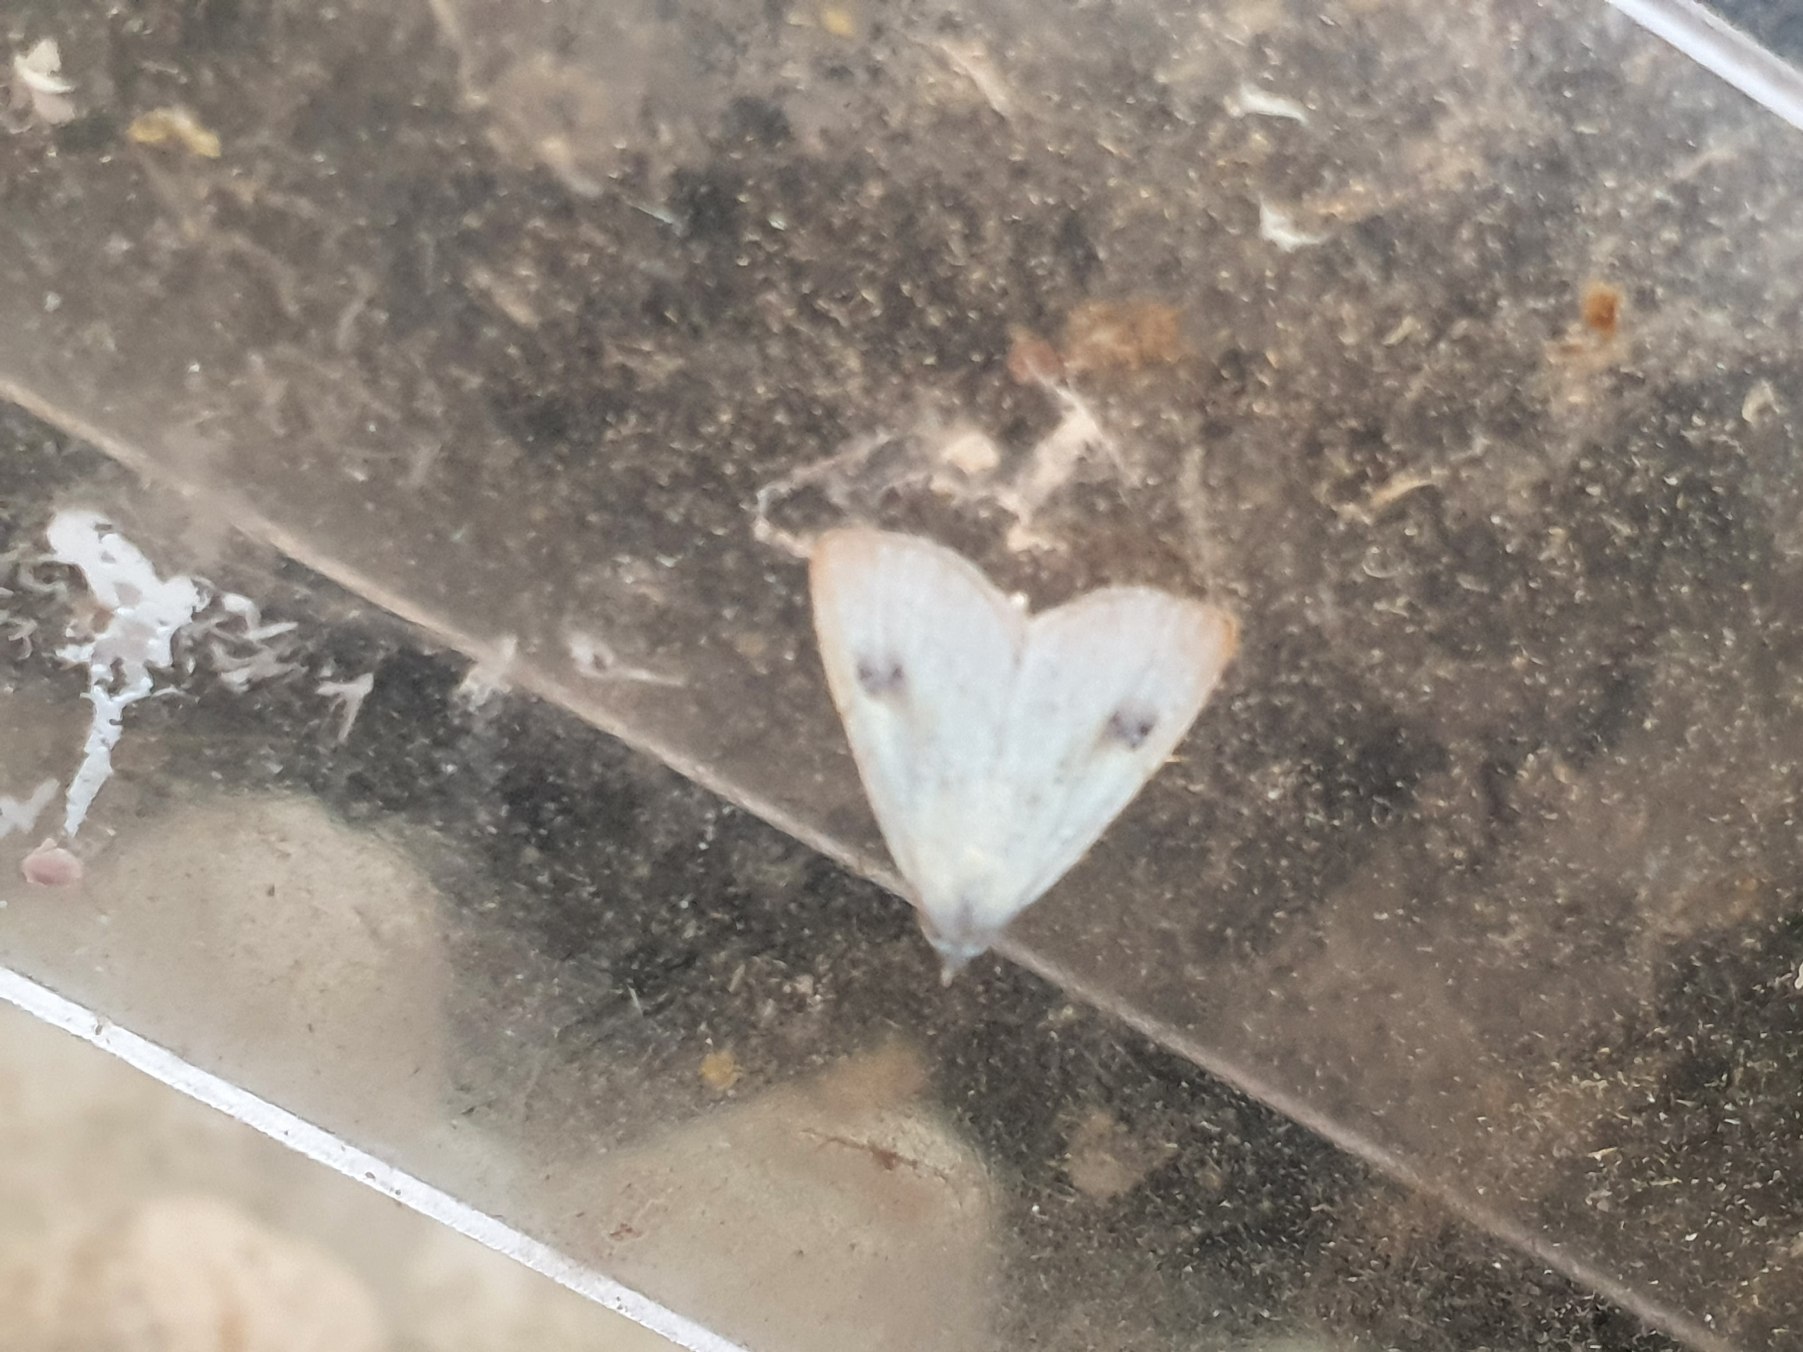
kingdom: Animalia
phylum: Arthropoda
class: Insecta
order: Lepidoptera
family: Erebidae
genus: Rivula
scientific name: Rivula sericealis
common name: Lille å-ugle
